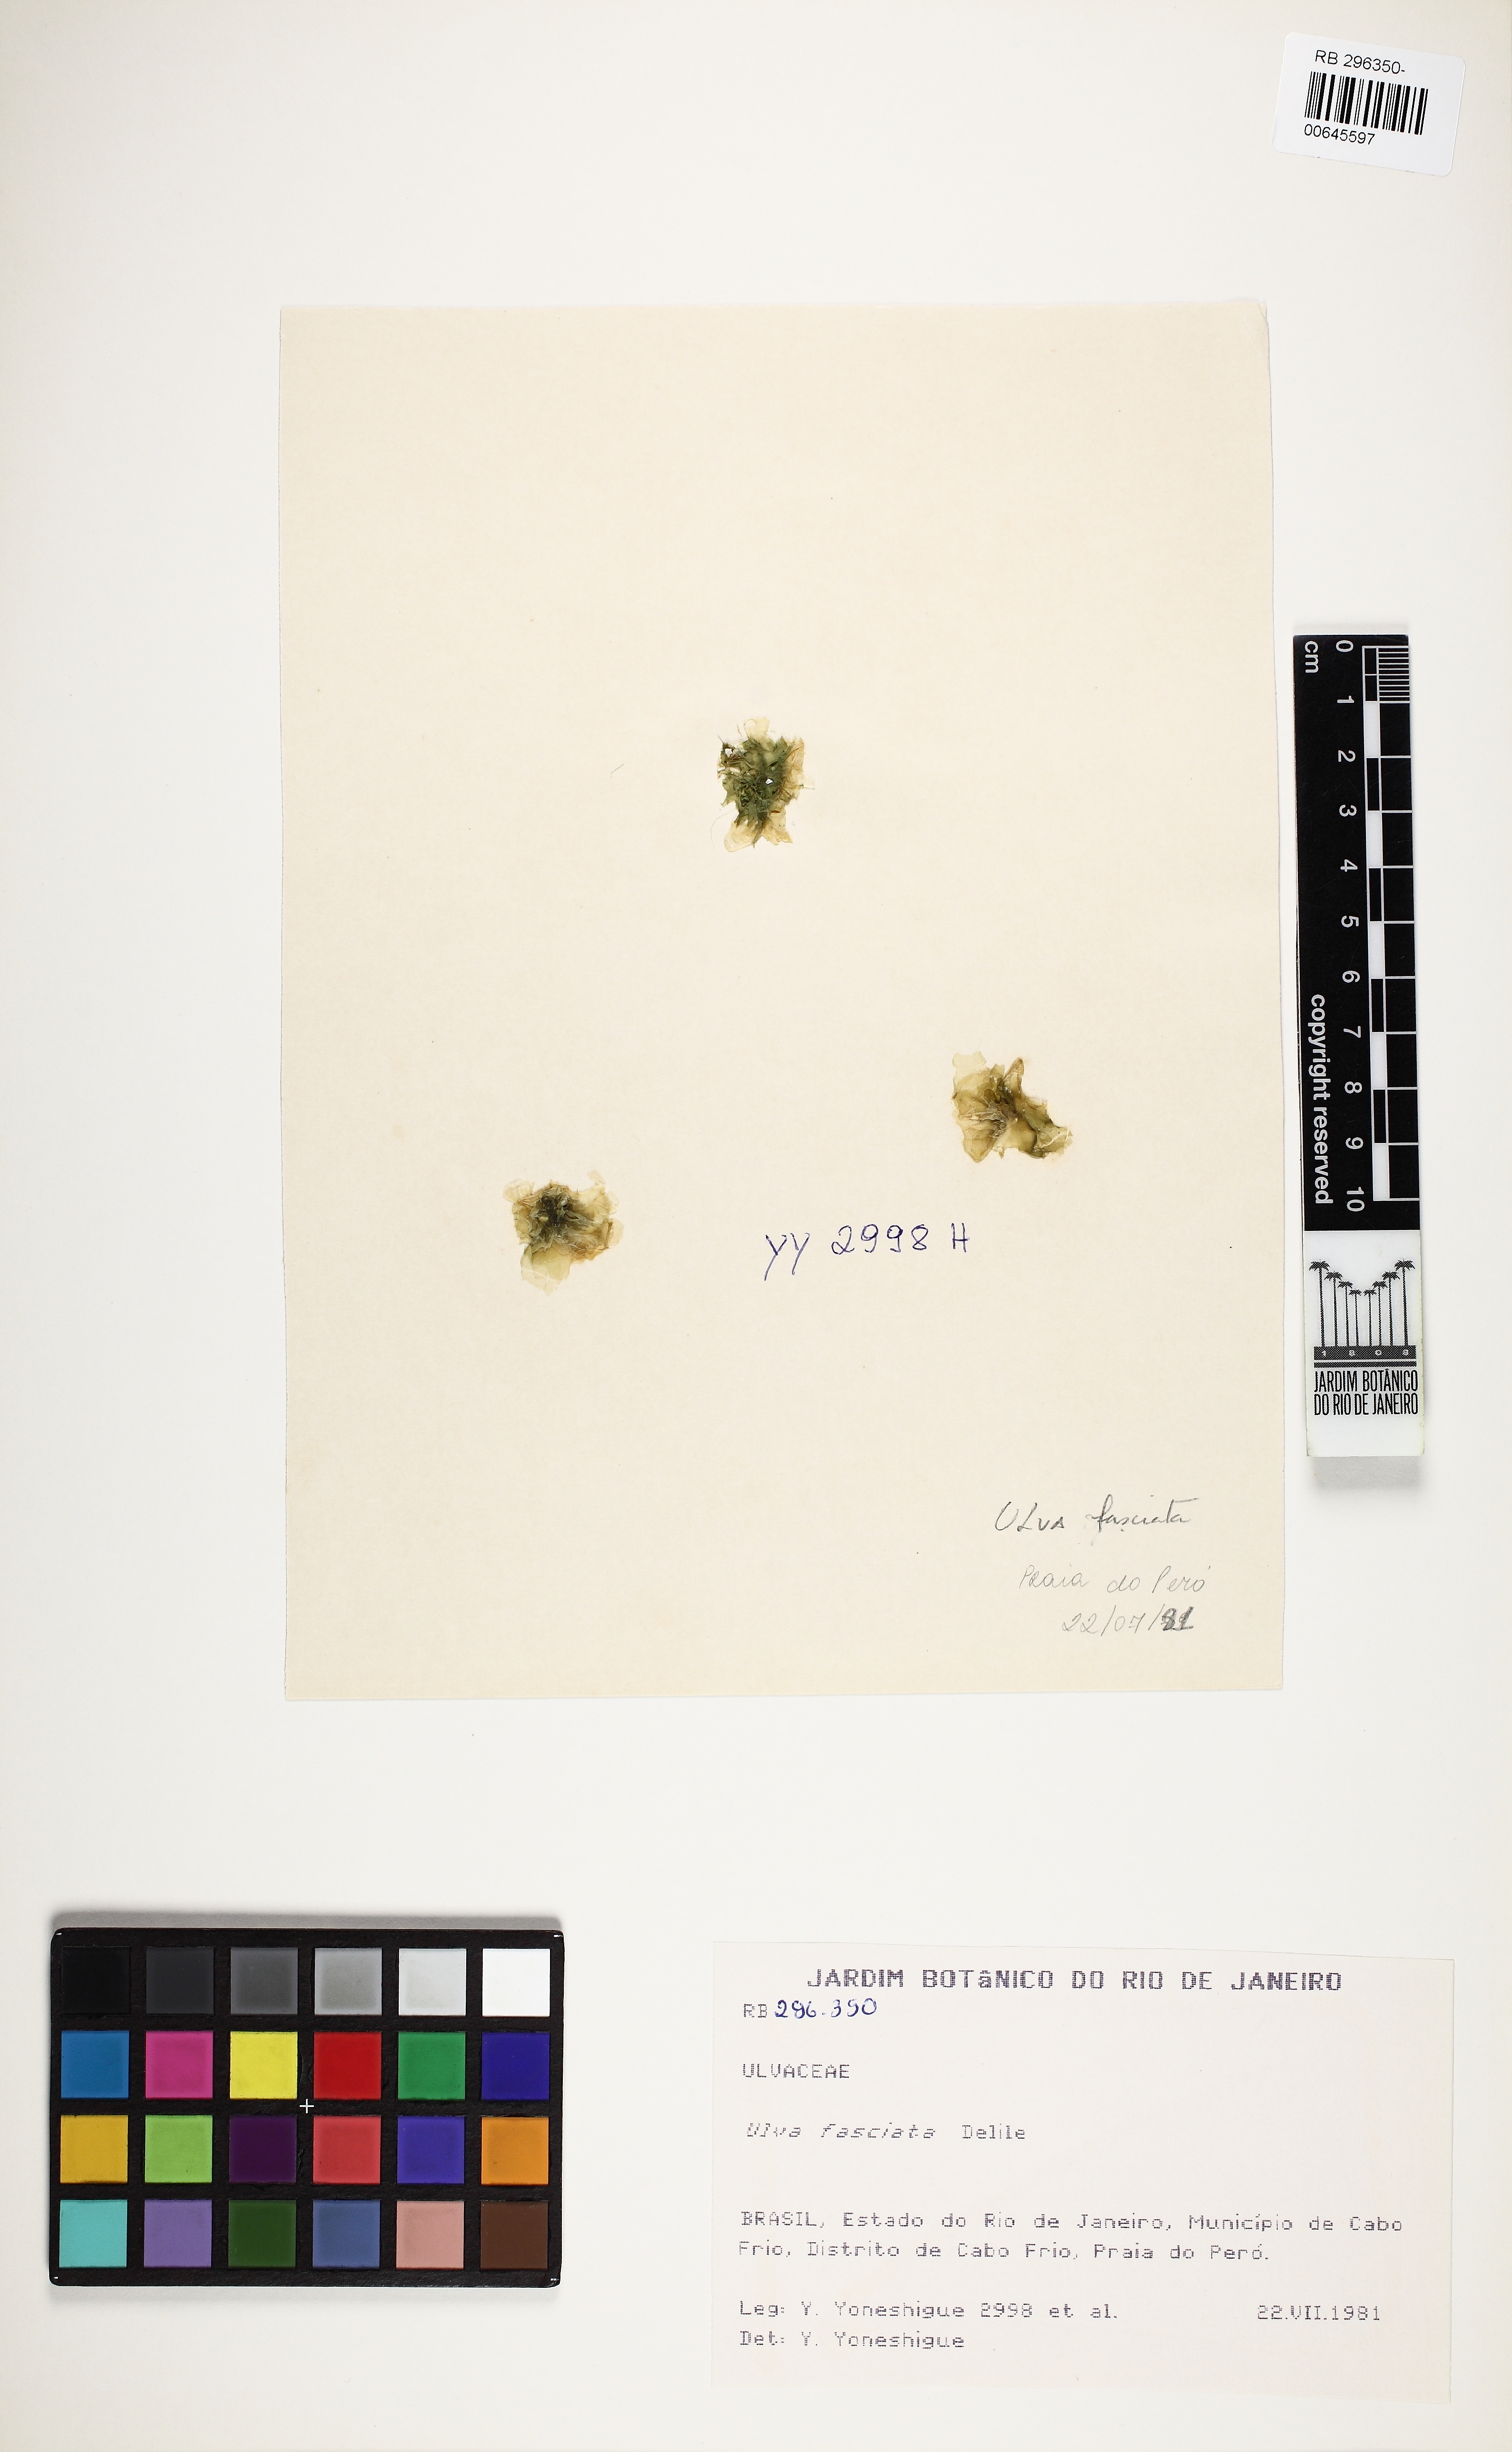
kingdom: Plantae
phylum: Chlorophyta
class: Ulvophyceae
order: Ulvales
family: Ulvaceae
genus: Ulva
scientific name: Ulva lactuca
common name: Sea lettuce
